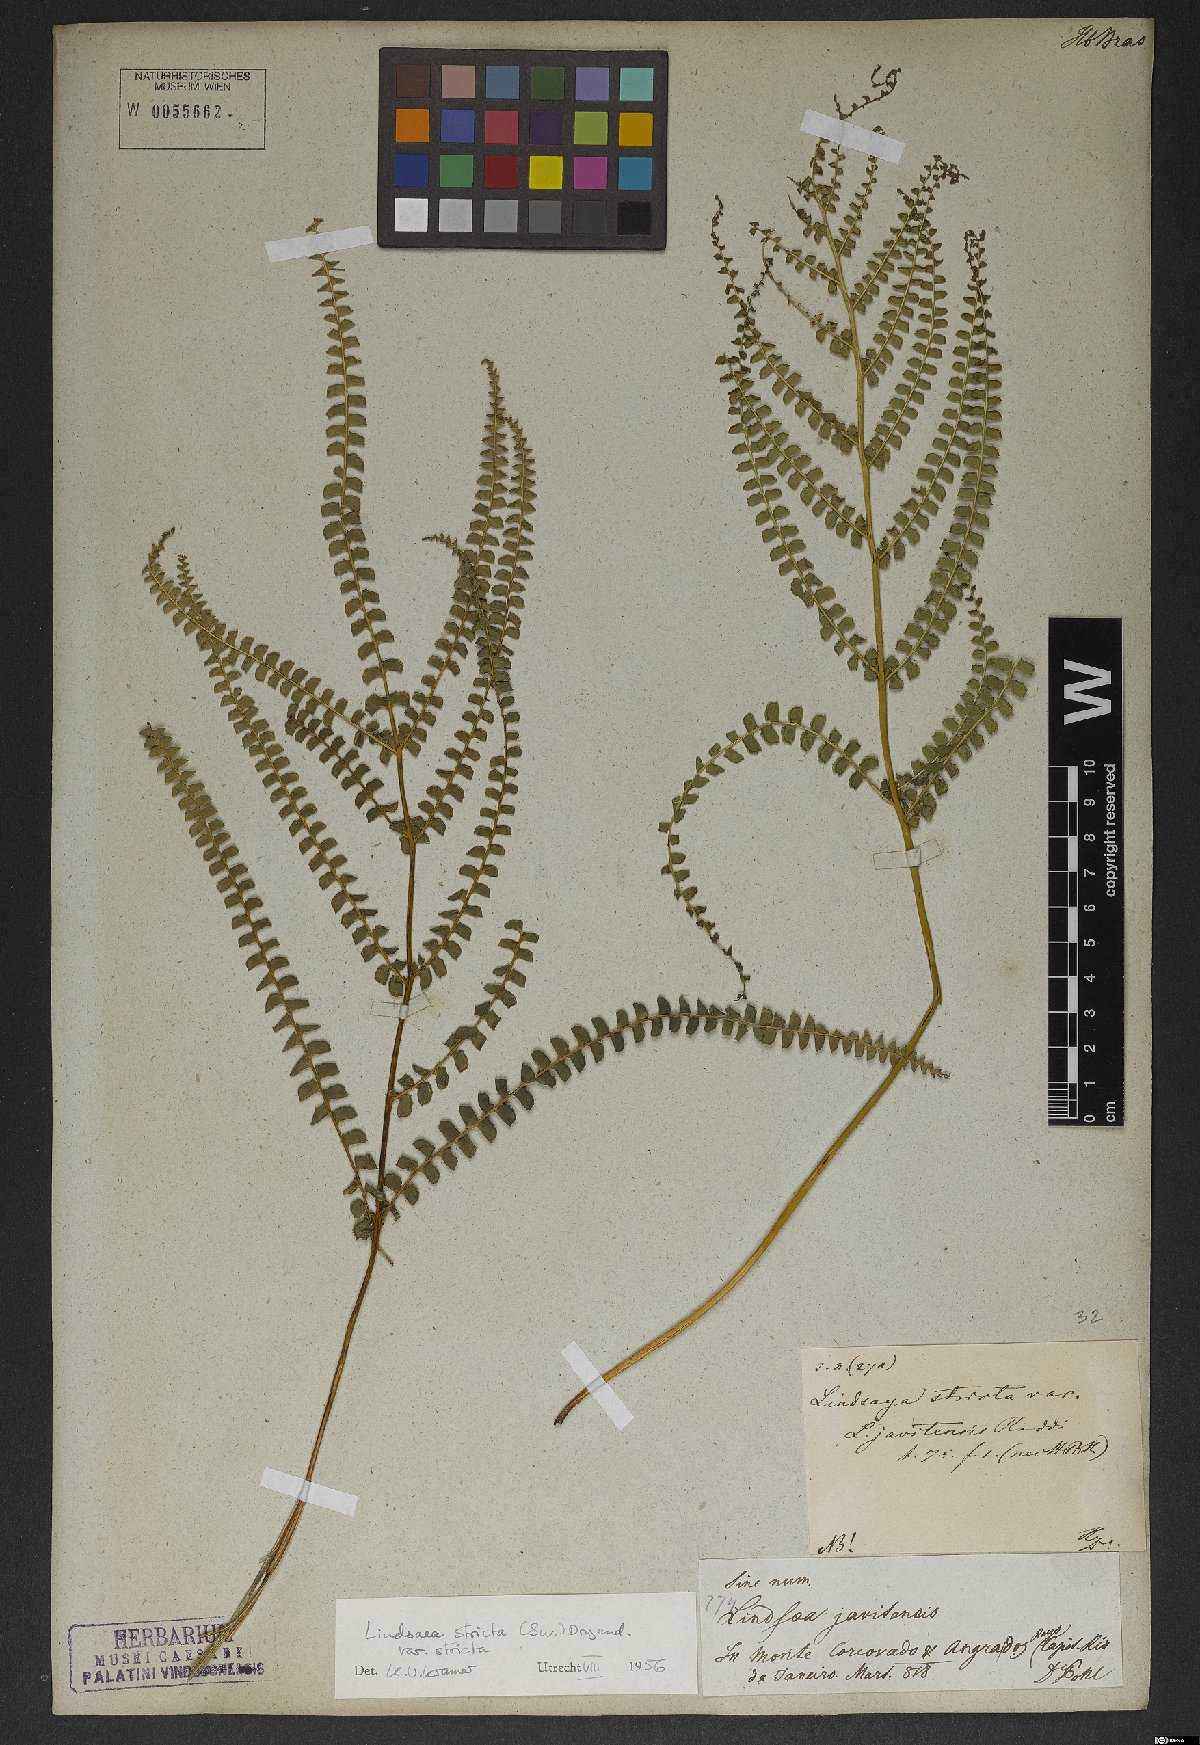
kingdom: Plantae
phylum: Tracheophyta
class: Polypodiopsida
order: Polypodiales
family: Lindsaeaceae
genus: Lindsaea
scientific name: Lindsaea stricta
